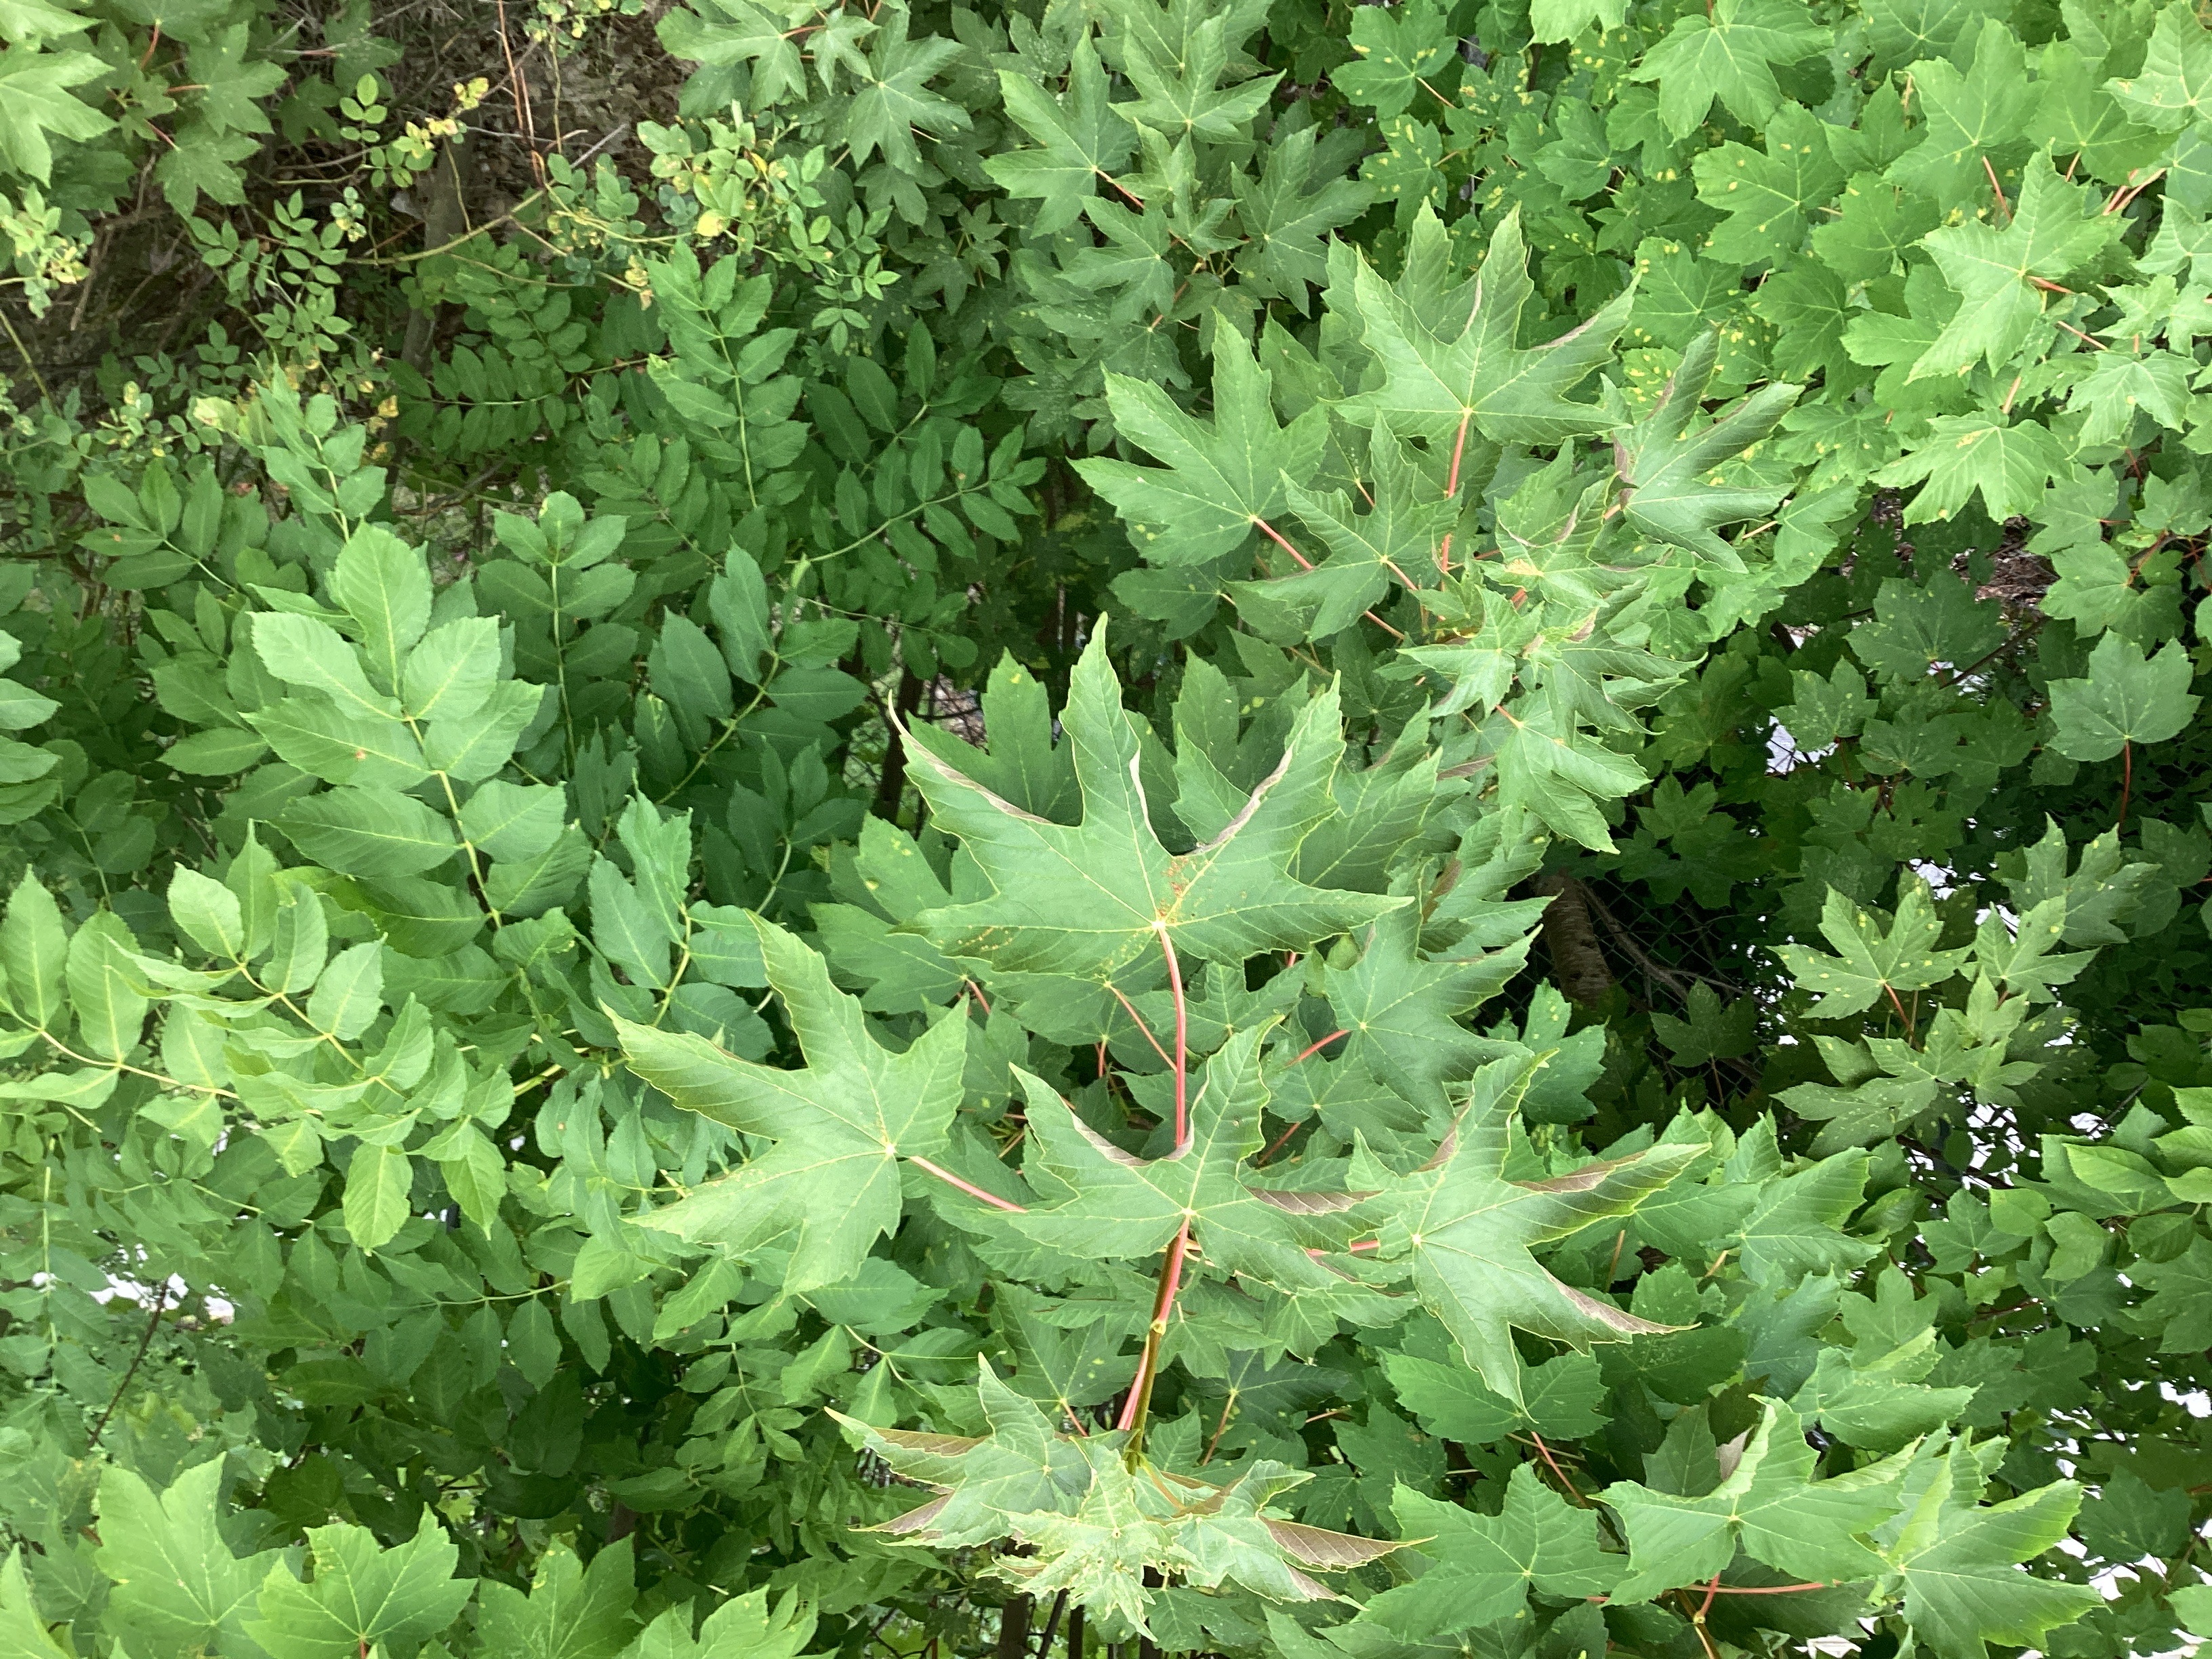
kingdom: Plantae
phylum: Tracheophyta
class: Magnoliopsida
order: Sapindales
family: Sapindaceae
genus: Acer
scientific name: Acer pseudoplatanus
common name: platanlønn
